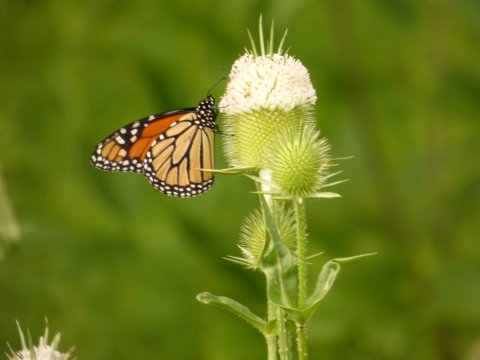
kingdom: Animalia
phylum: Arthropoda
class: Insecta
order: Lepidoptera
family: Nymphalidae
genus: Danaus
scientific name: Danaus plexippus
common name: Monarch
